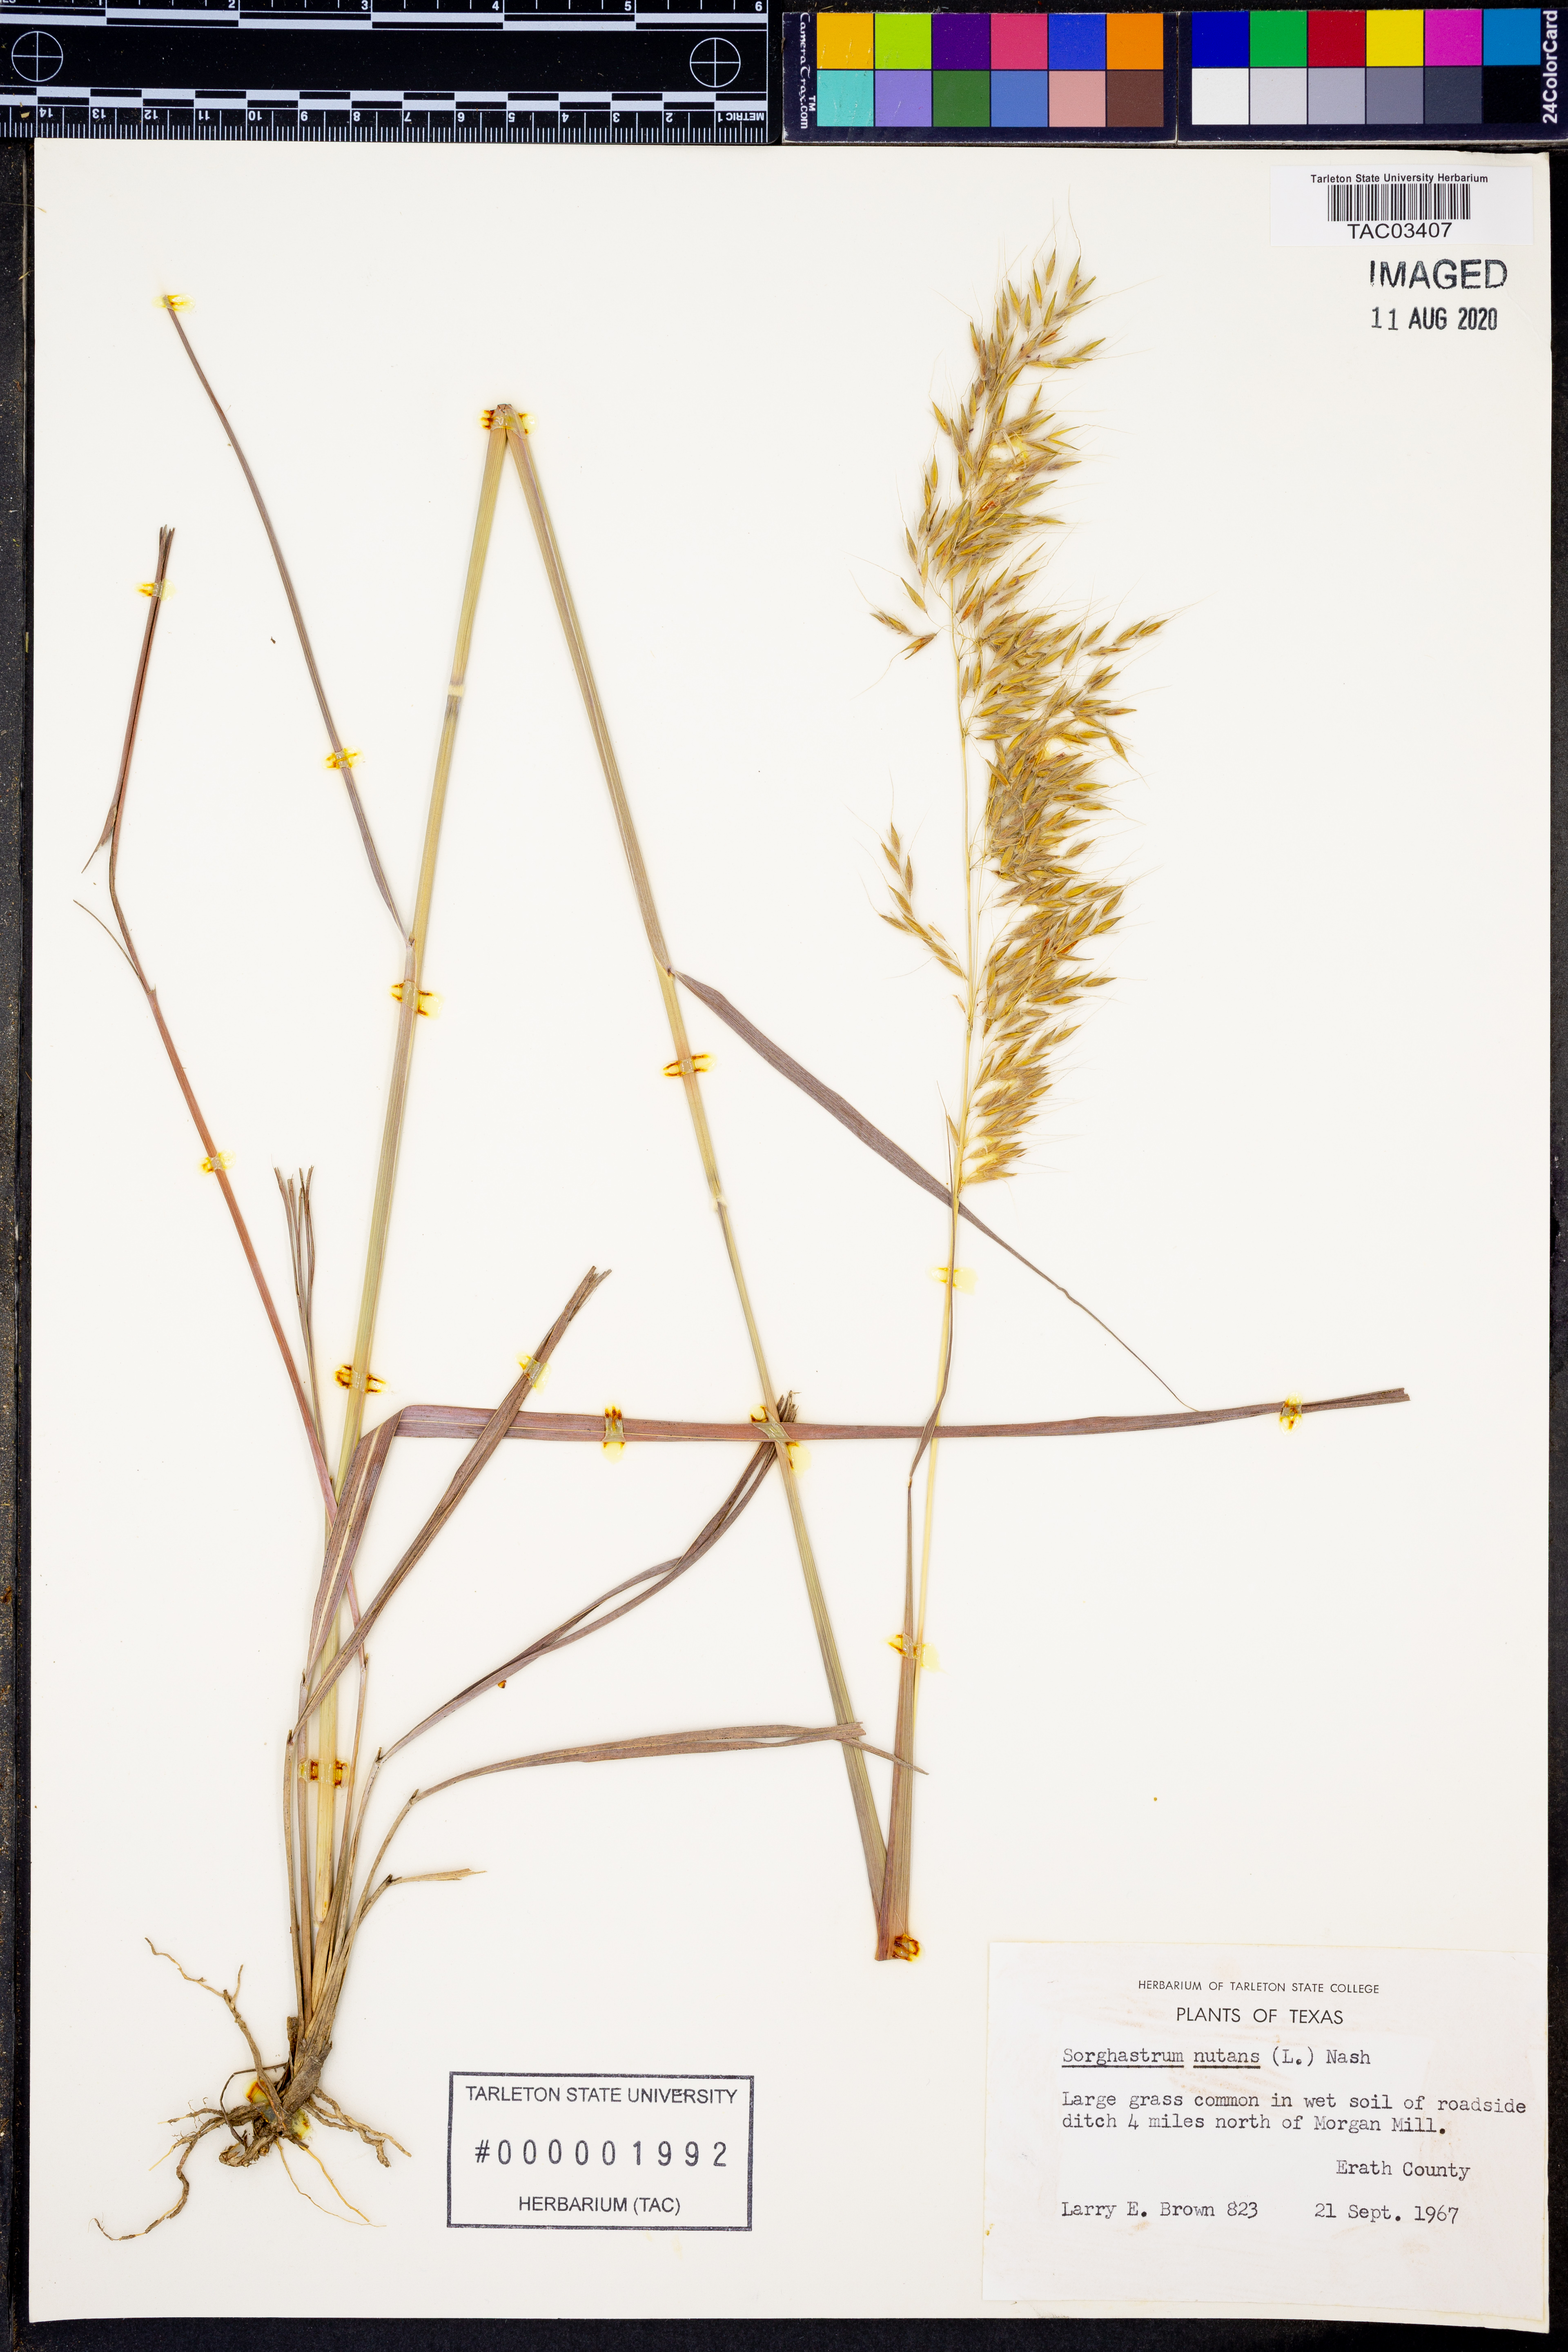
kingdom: Plantae
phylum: Tracheophyta
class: Liliopsida
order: Poales
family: Poaceae
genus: Sorghastrum
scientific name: Sorghastrum nutans
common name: Indian grass
